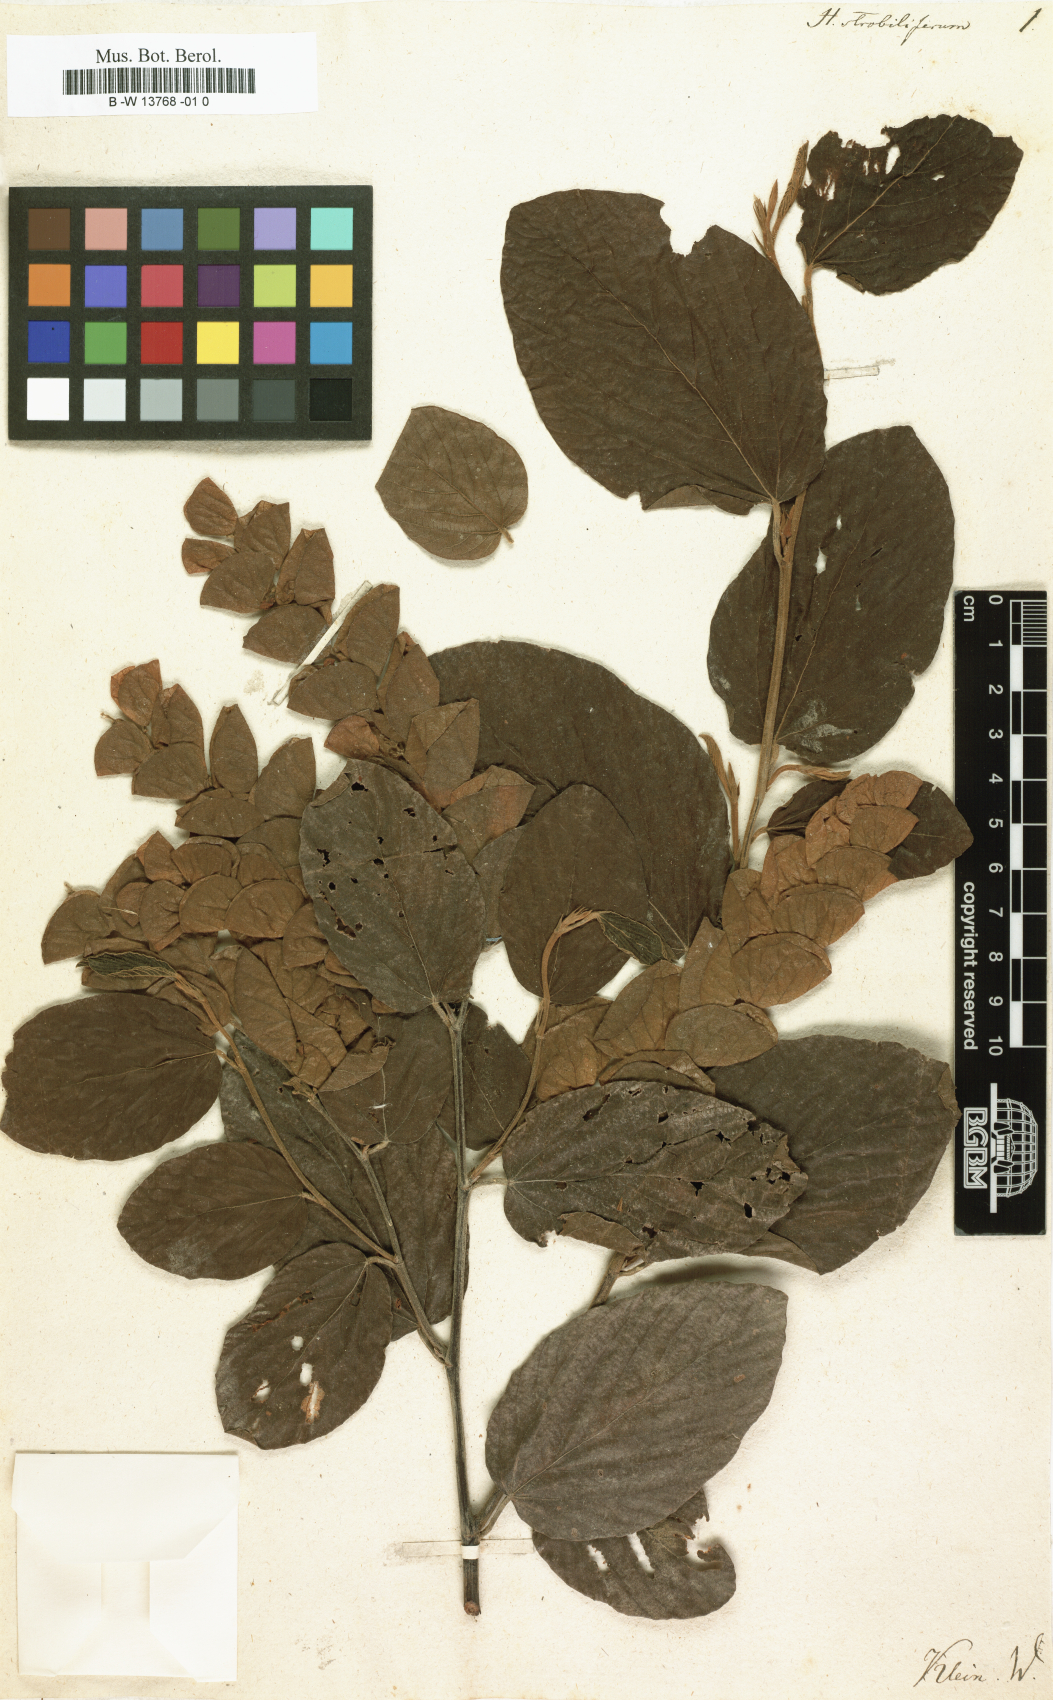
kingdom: Plantae
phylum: Tracheophyta
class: Magnoliopsida
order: Fabales
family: Fabaceae
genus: Flemingia
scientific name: Flemingia strobilifera
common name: Wild hops
